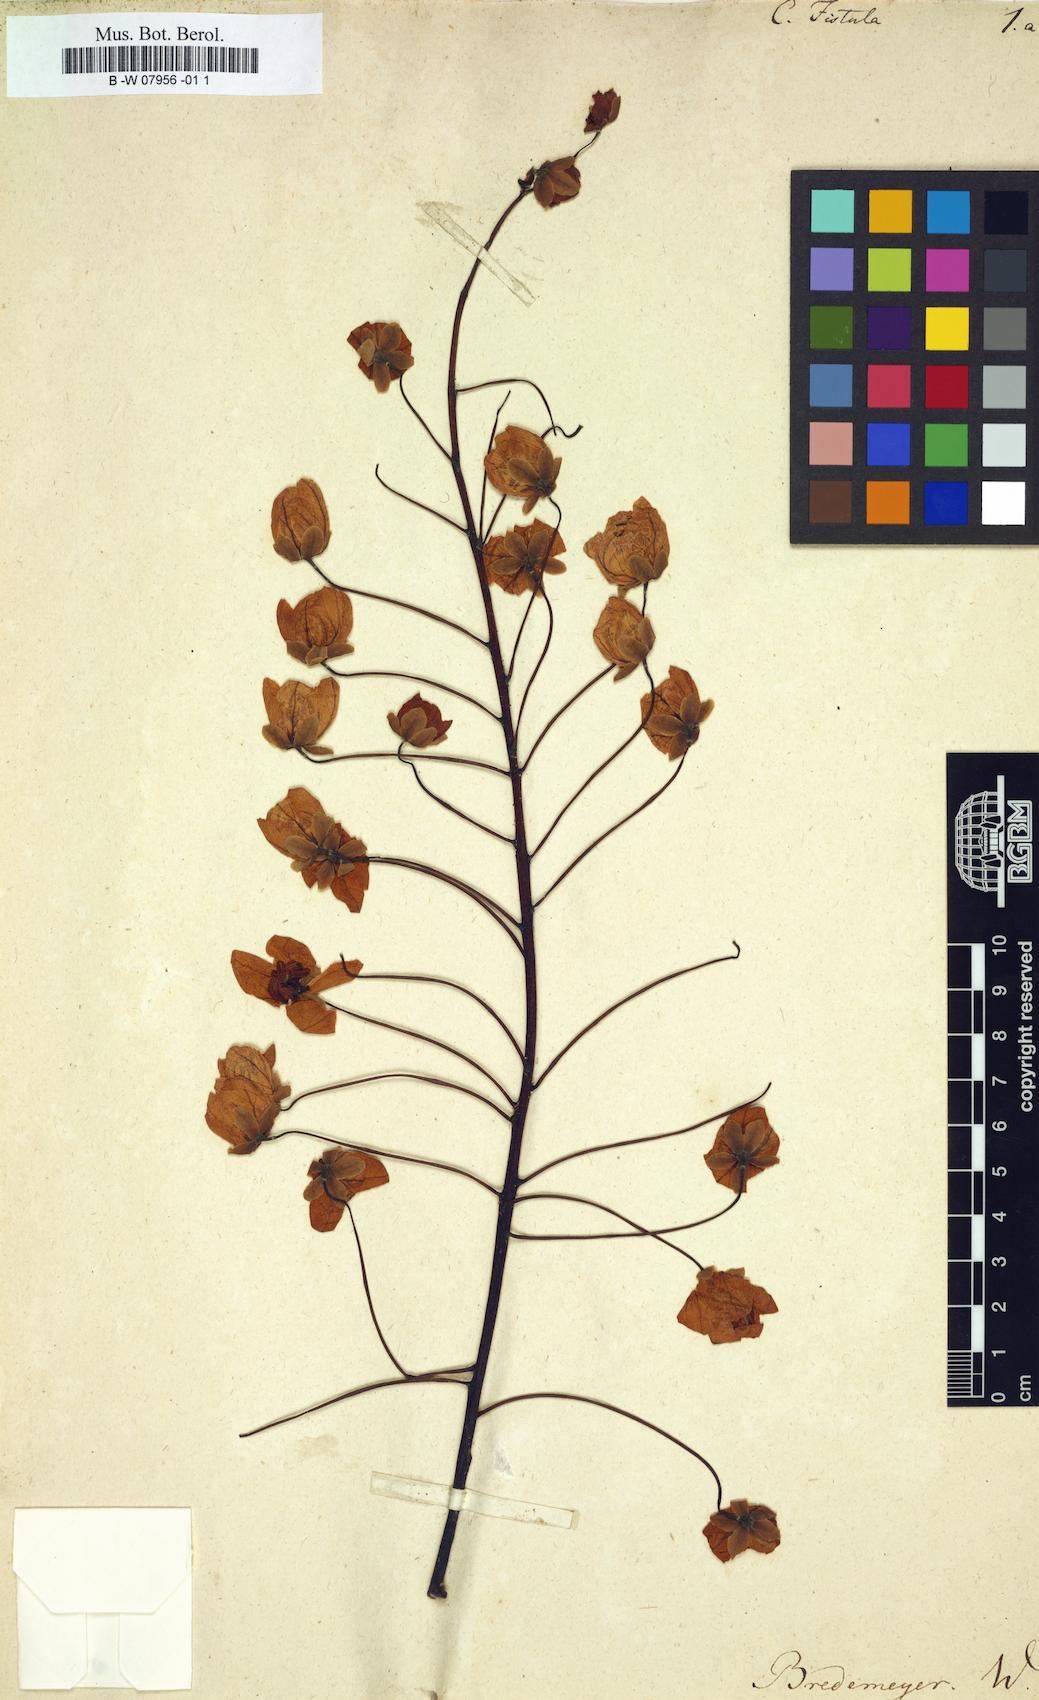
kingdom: Plantae
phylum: Tracheophyta
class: Magnoliopsida
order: Fabales
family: Fabaceae
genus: Cassia
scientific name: Cassia fistula
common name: Golden shower
